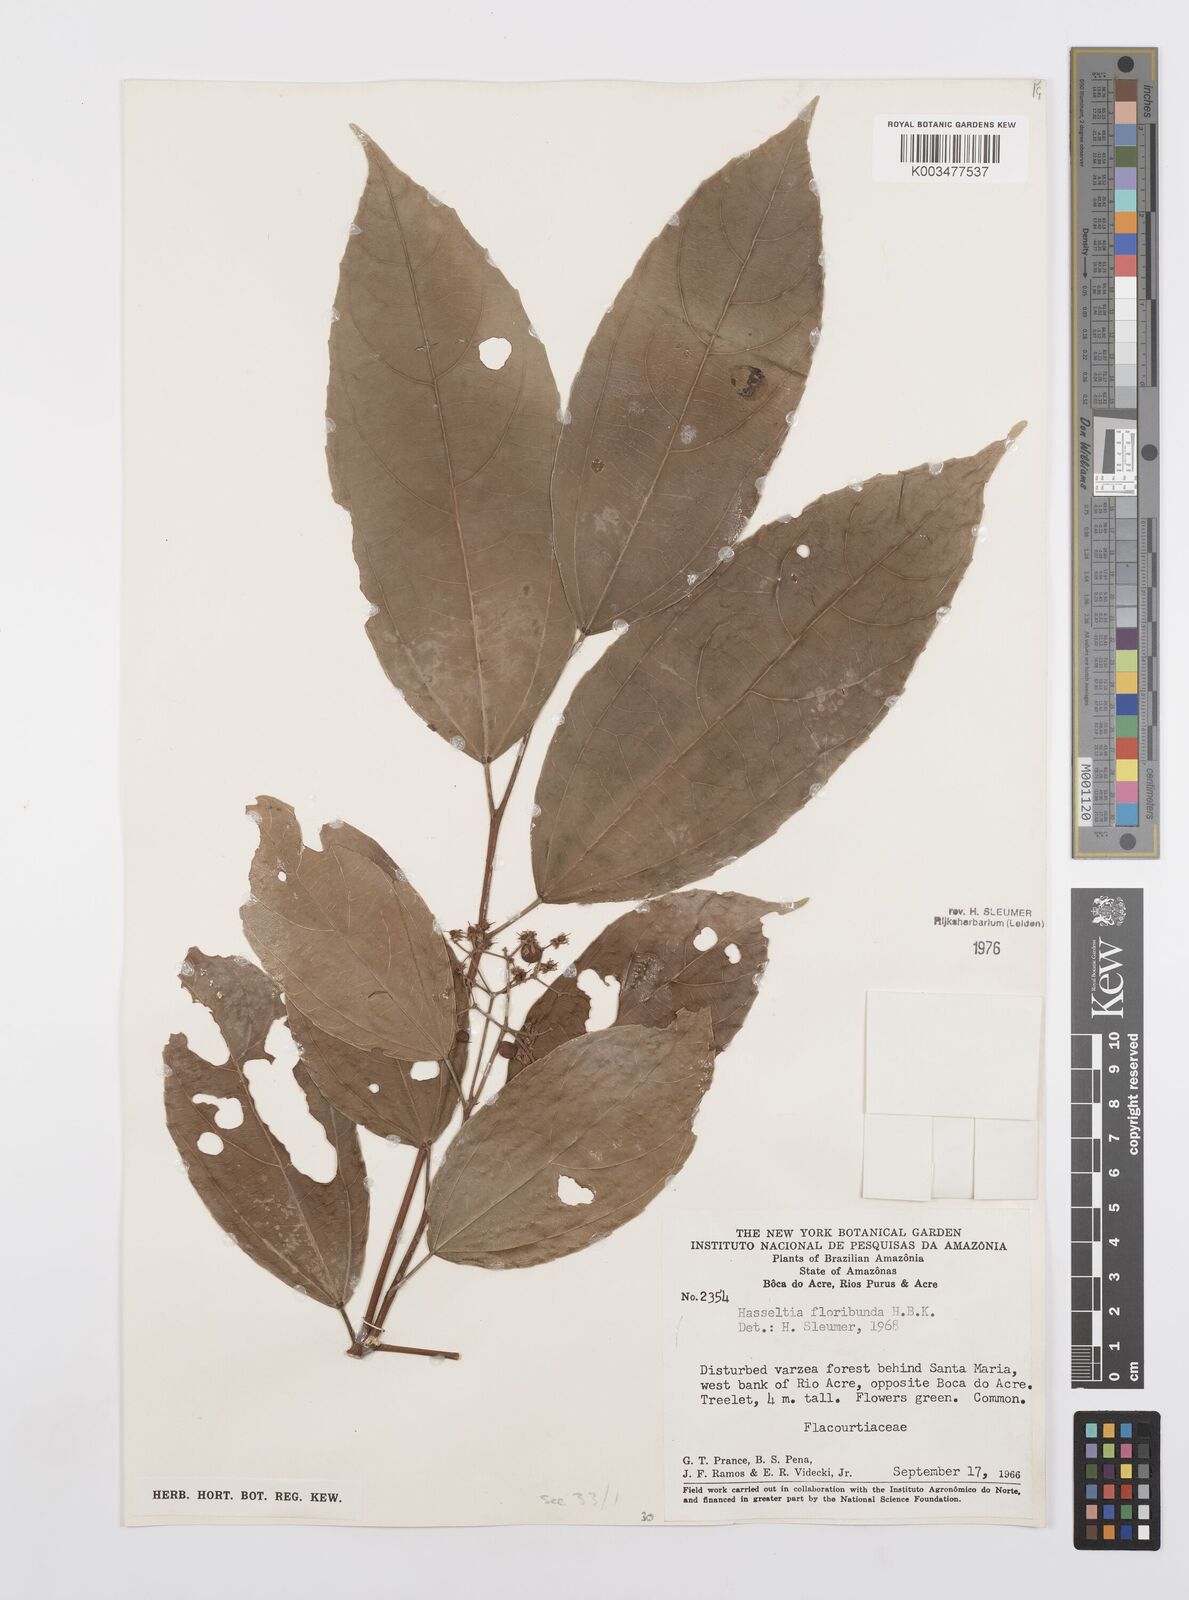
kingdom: Plantae
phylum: Tracheophyta
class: Magnoliopsida
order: Malpighiales
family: Salicaceae
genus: Hasseltia
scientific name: Hasseltia floribunda
